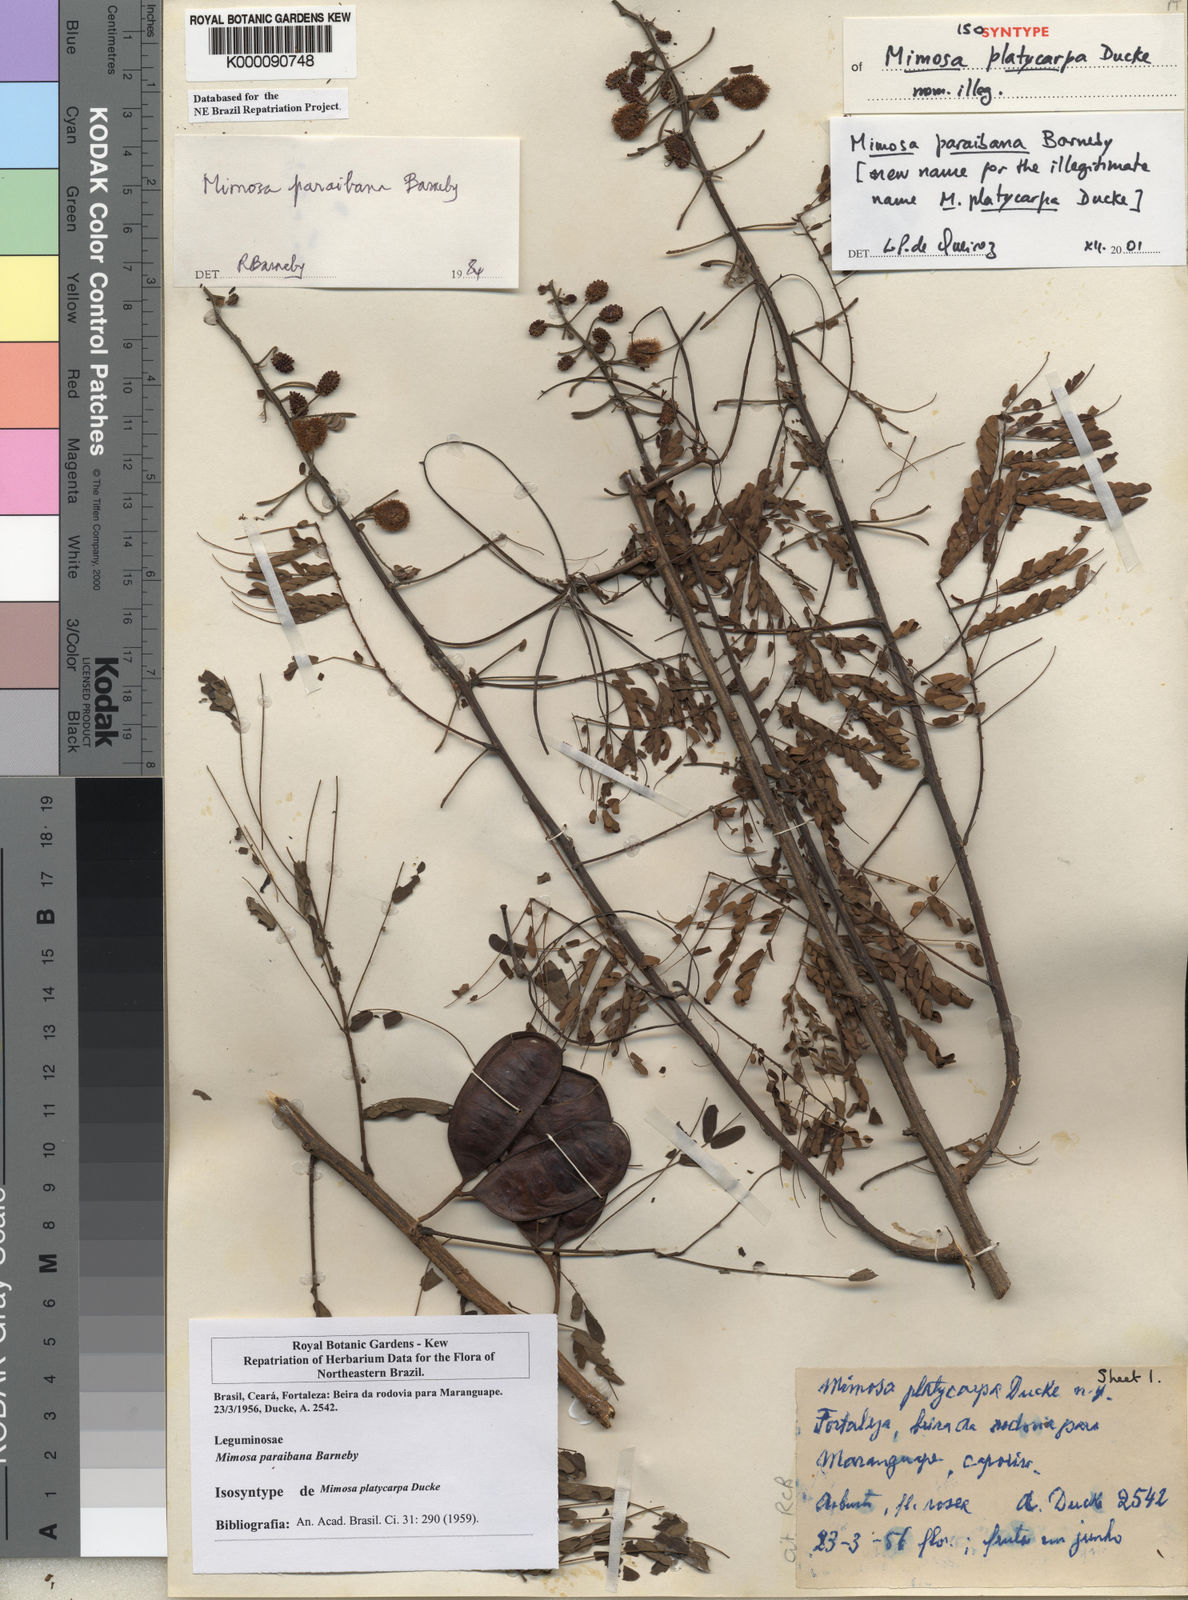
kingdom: Plantae
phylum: Tracheophyta
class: Magnoliopsida
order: Fabales
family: Fabaceae
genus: Mimosa
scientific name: Mimosa paraibana
